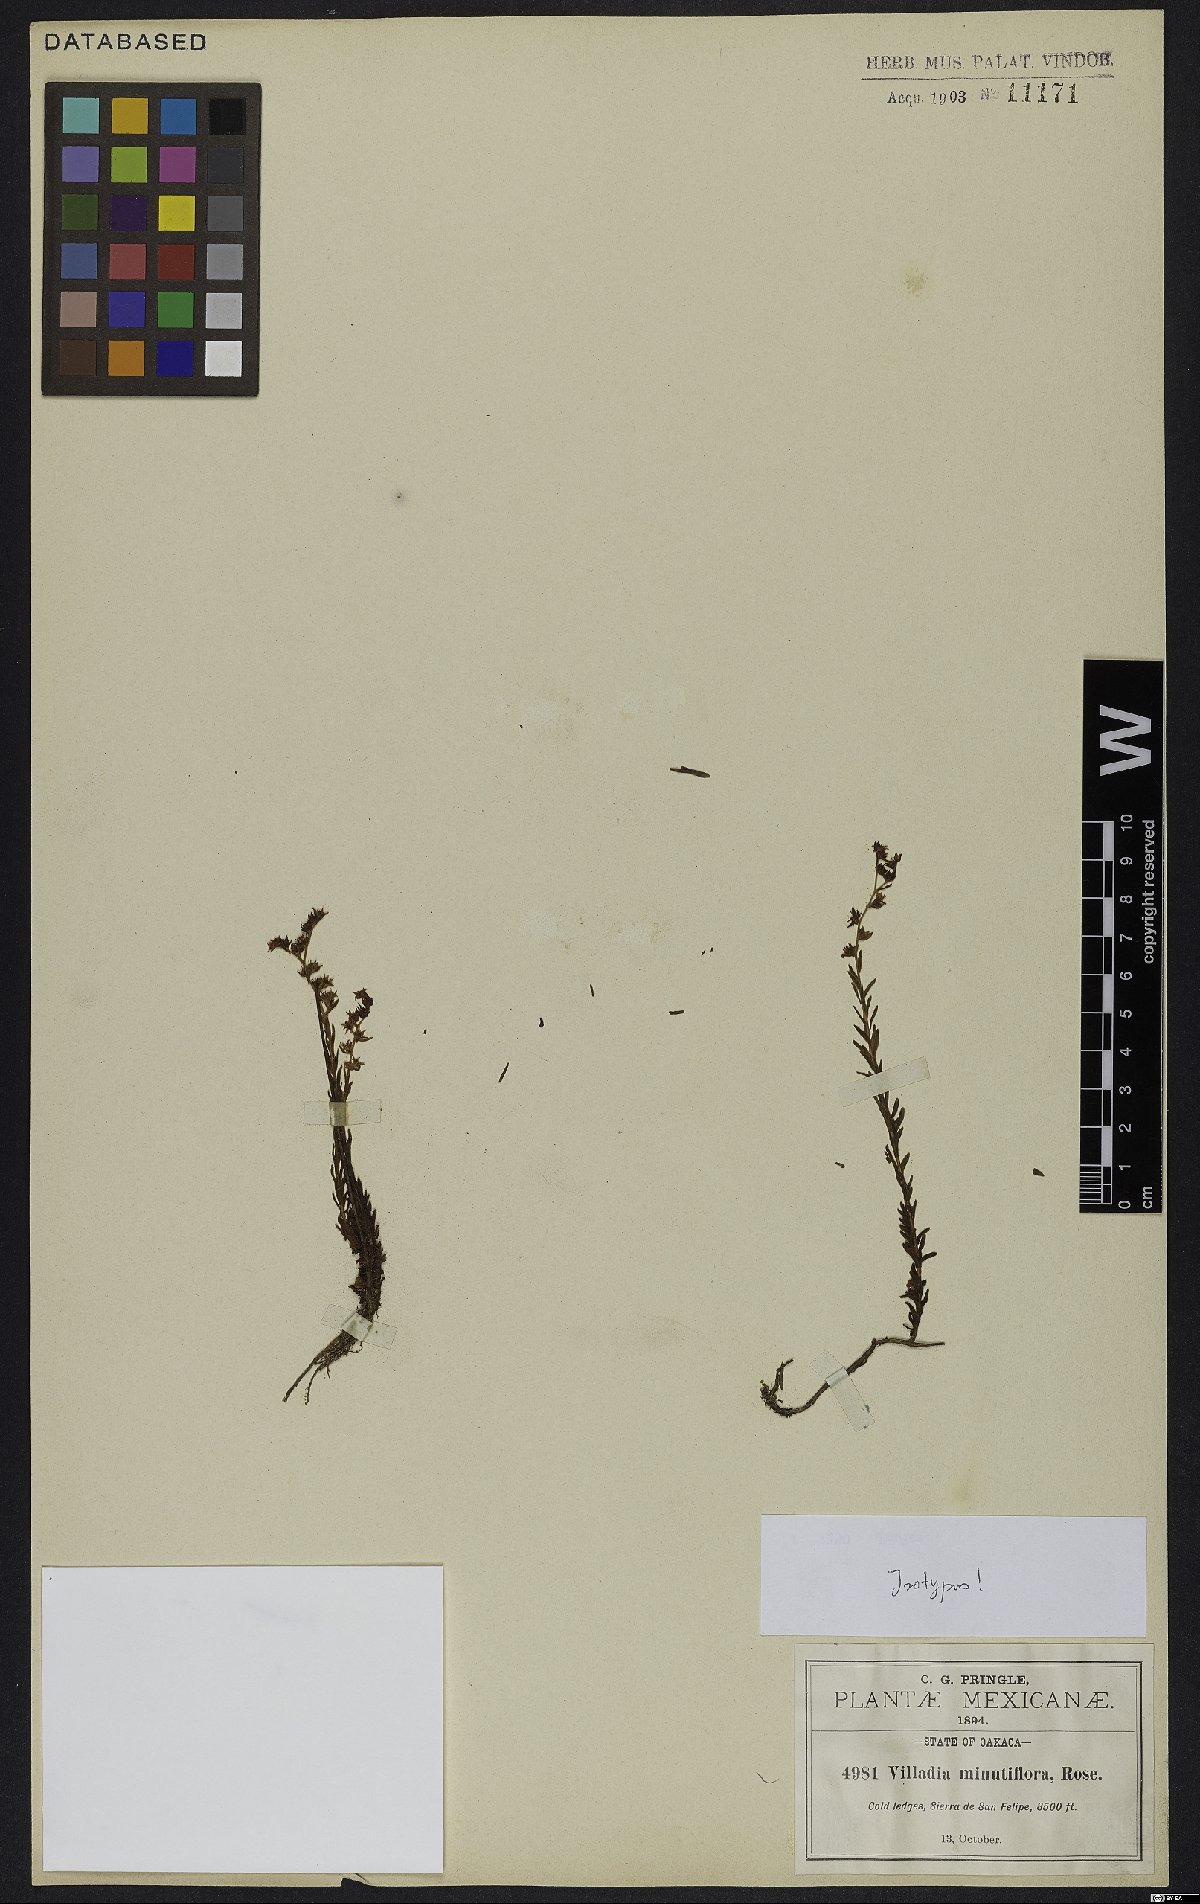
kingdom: Plantae
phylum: Tracheophyta
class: Magnoliopsida
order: Saxifragales
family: Crassulaceae
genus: Villadia
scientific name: Villadia minutiflora
